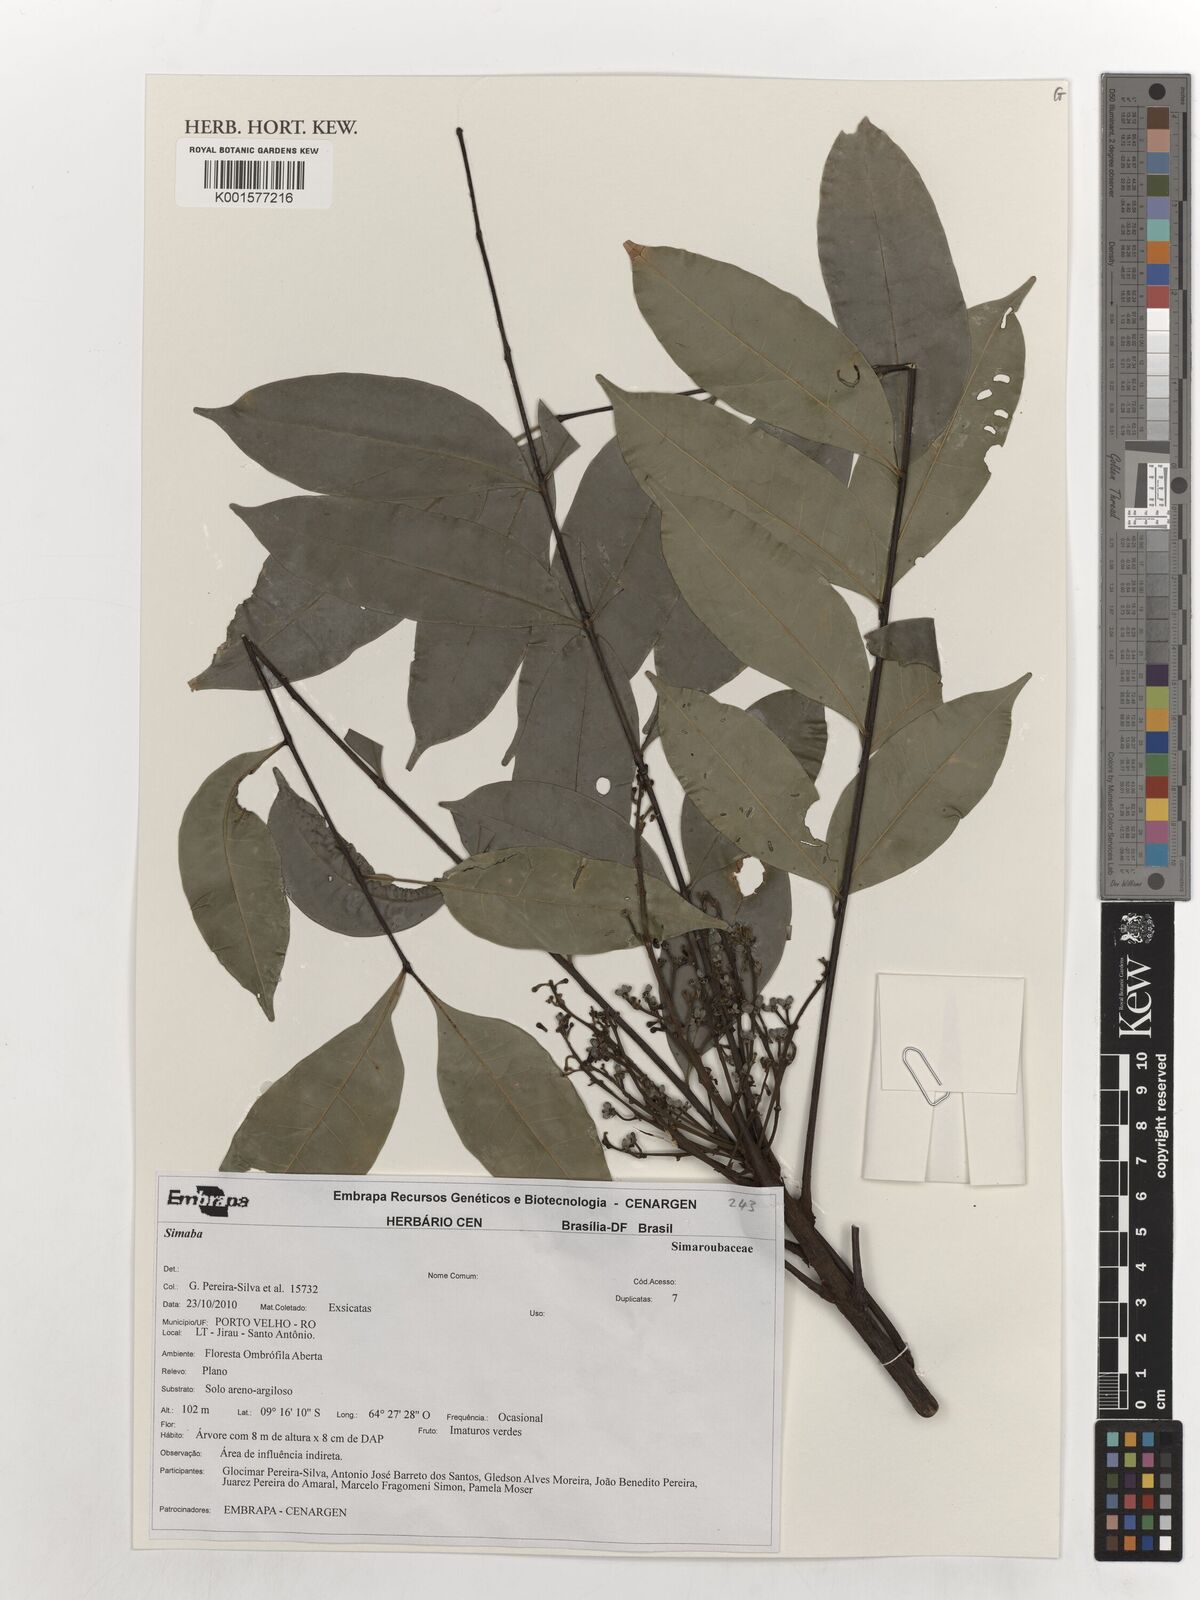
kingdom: Plantae
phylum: Tracheophyta
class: Magnoliopsida
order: Sapindales
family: Simaroubaceae
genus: Simaba
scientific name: Simaba
